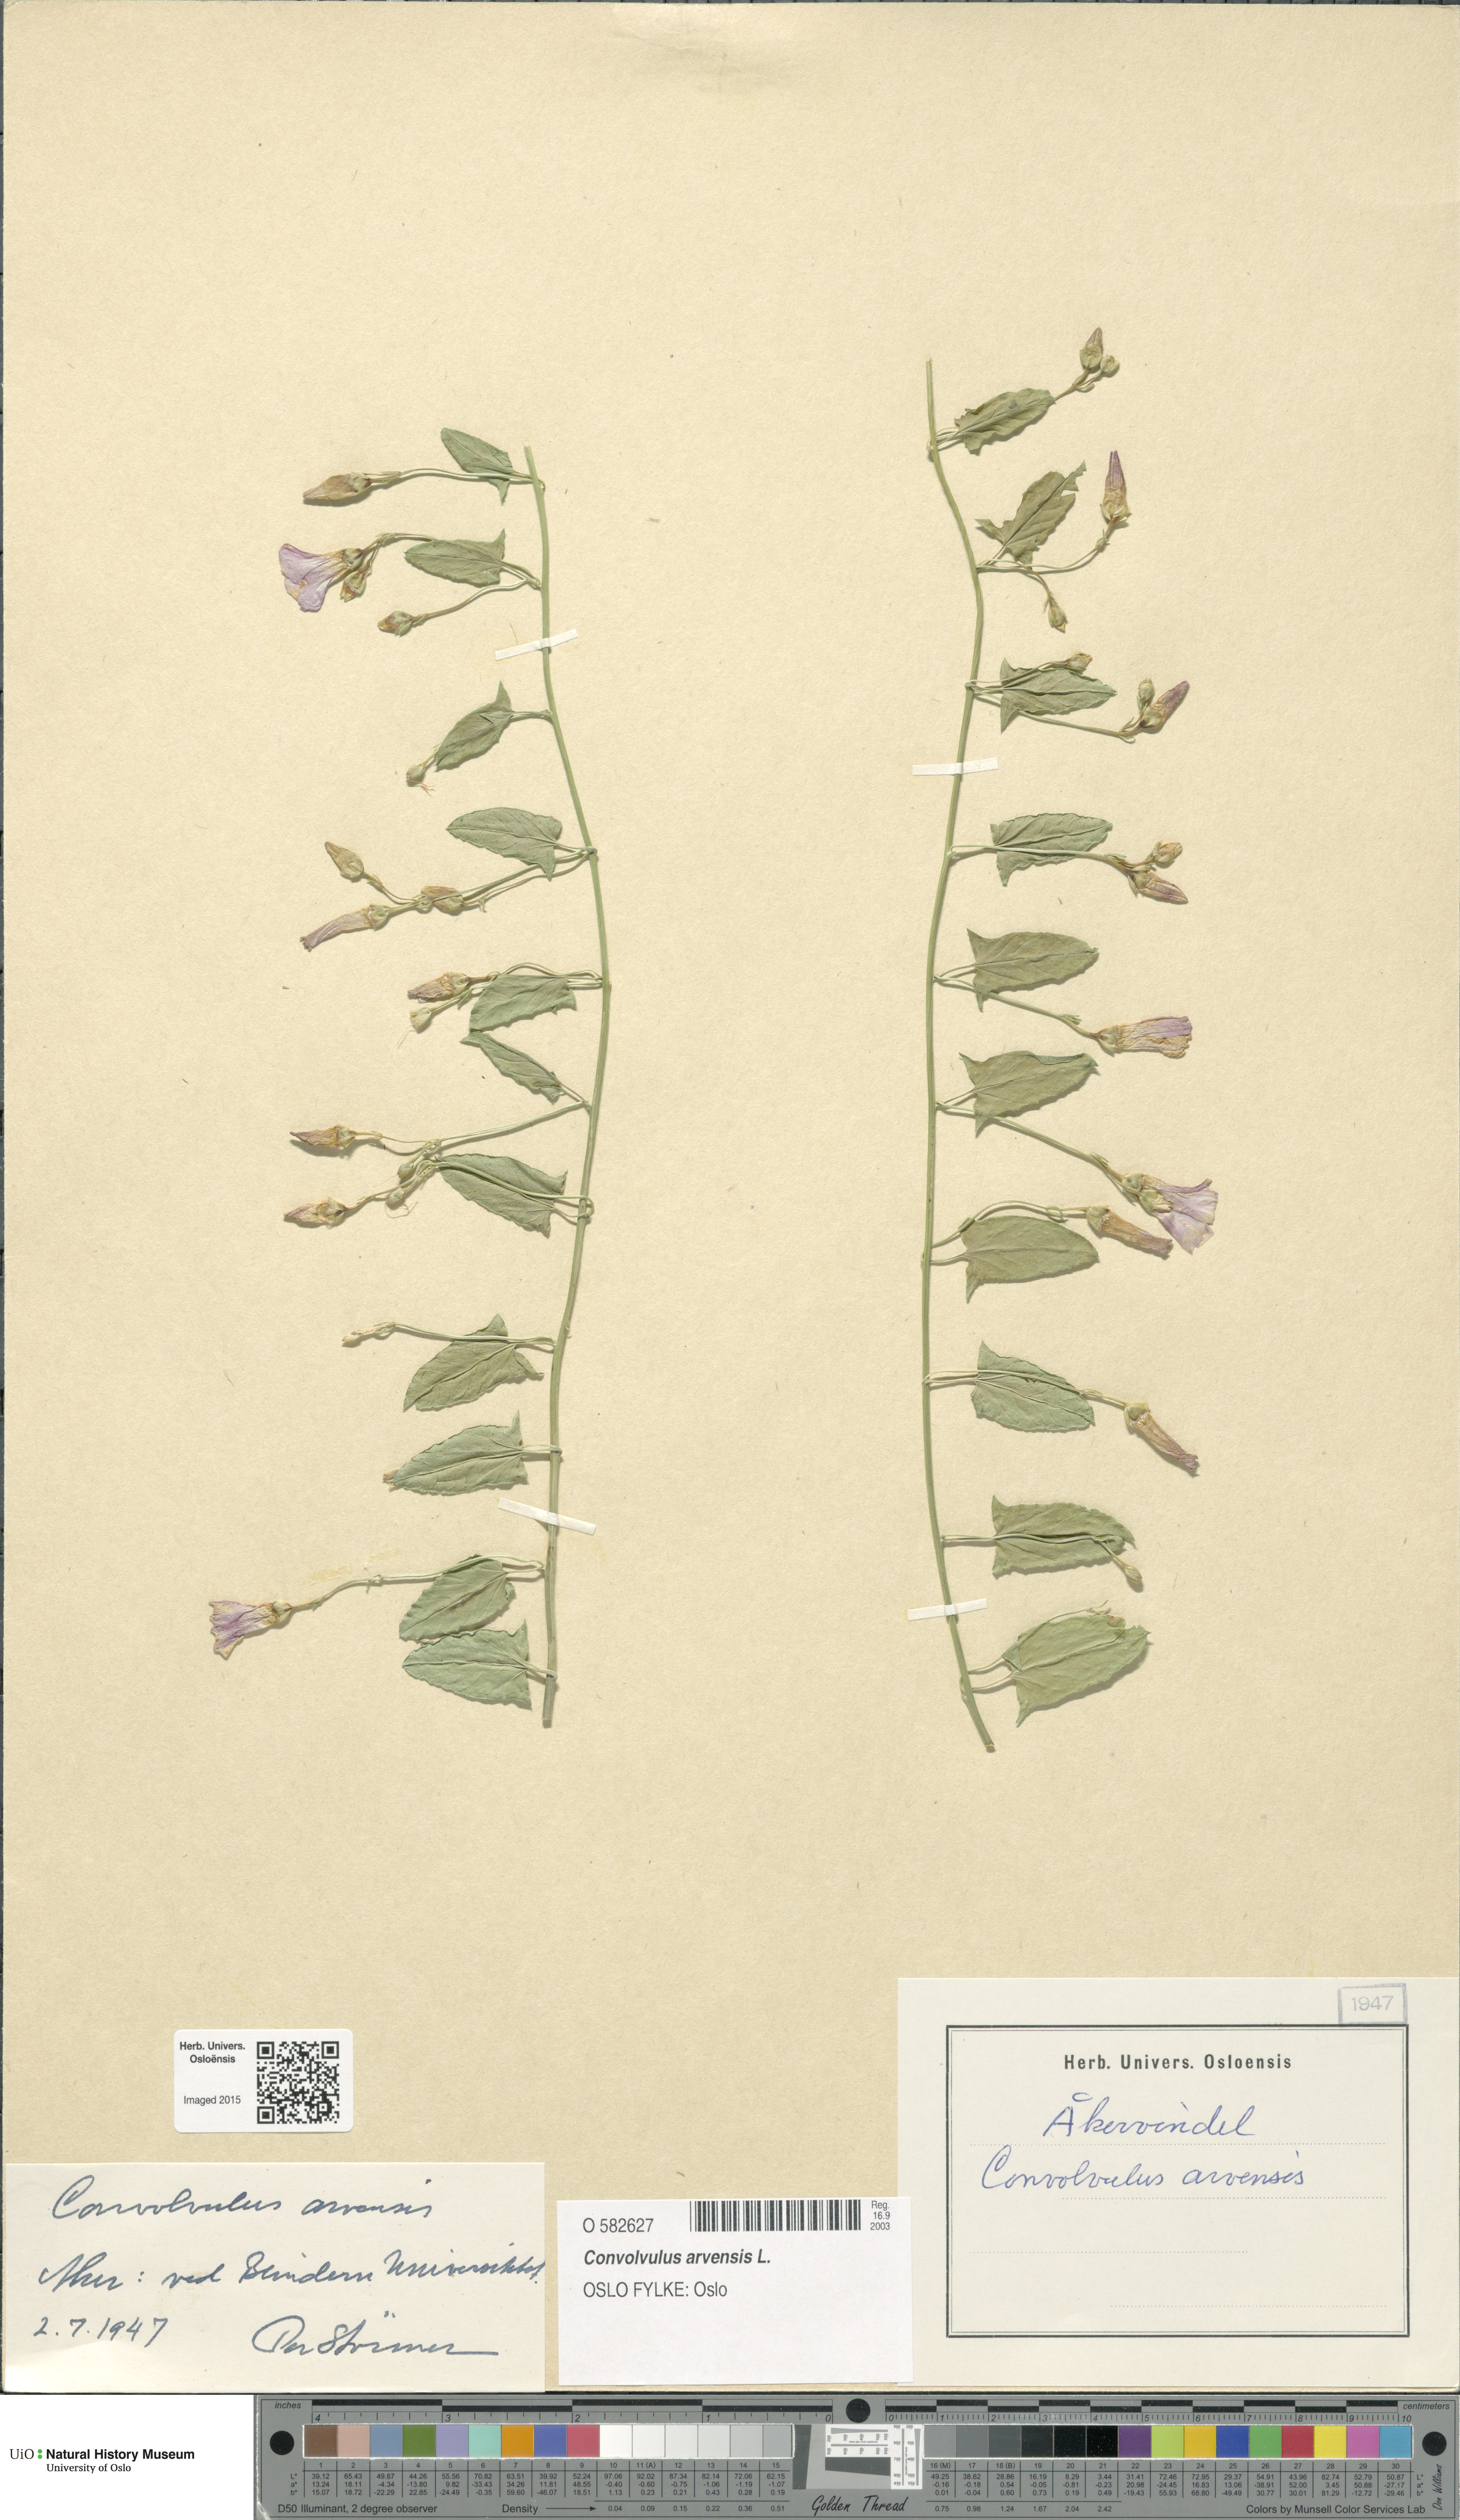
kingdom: Plantae
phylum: Tracheophyta
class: Magnoliopsida
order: Solanales
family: Convolvulaceae
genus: Convolvulus
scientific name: Convolvulus arvensis
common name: Field bindweed
